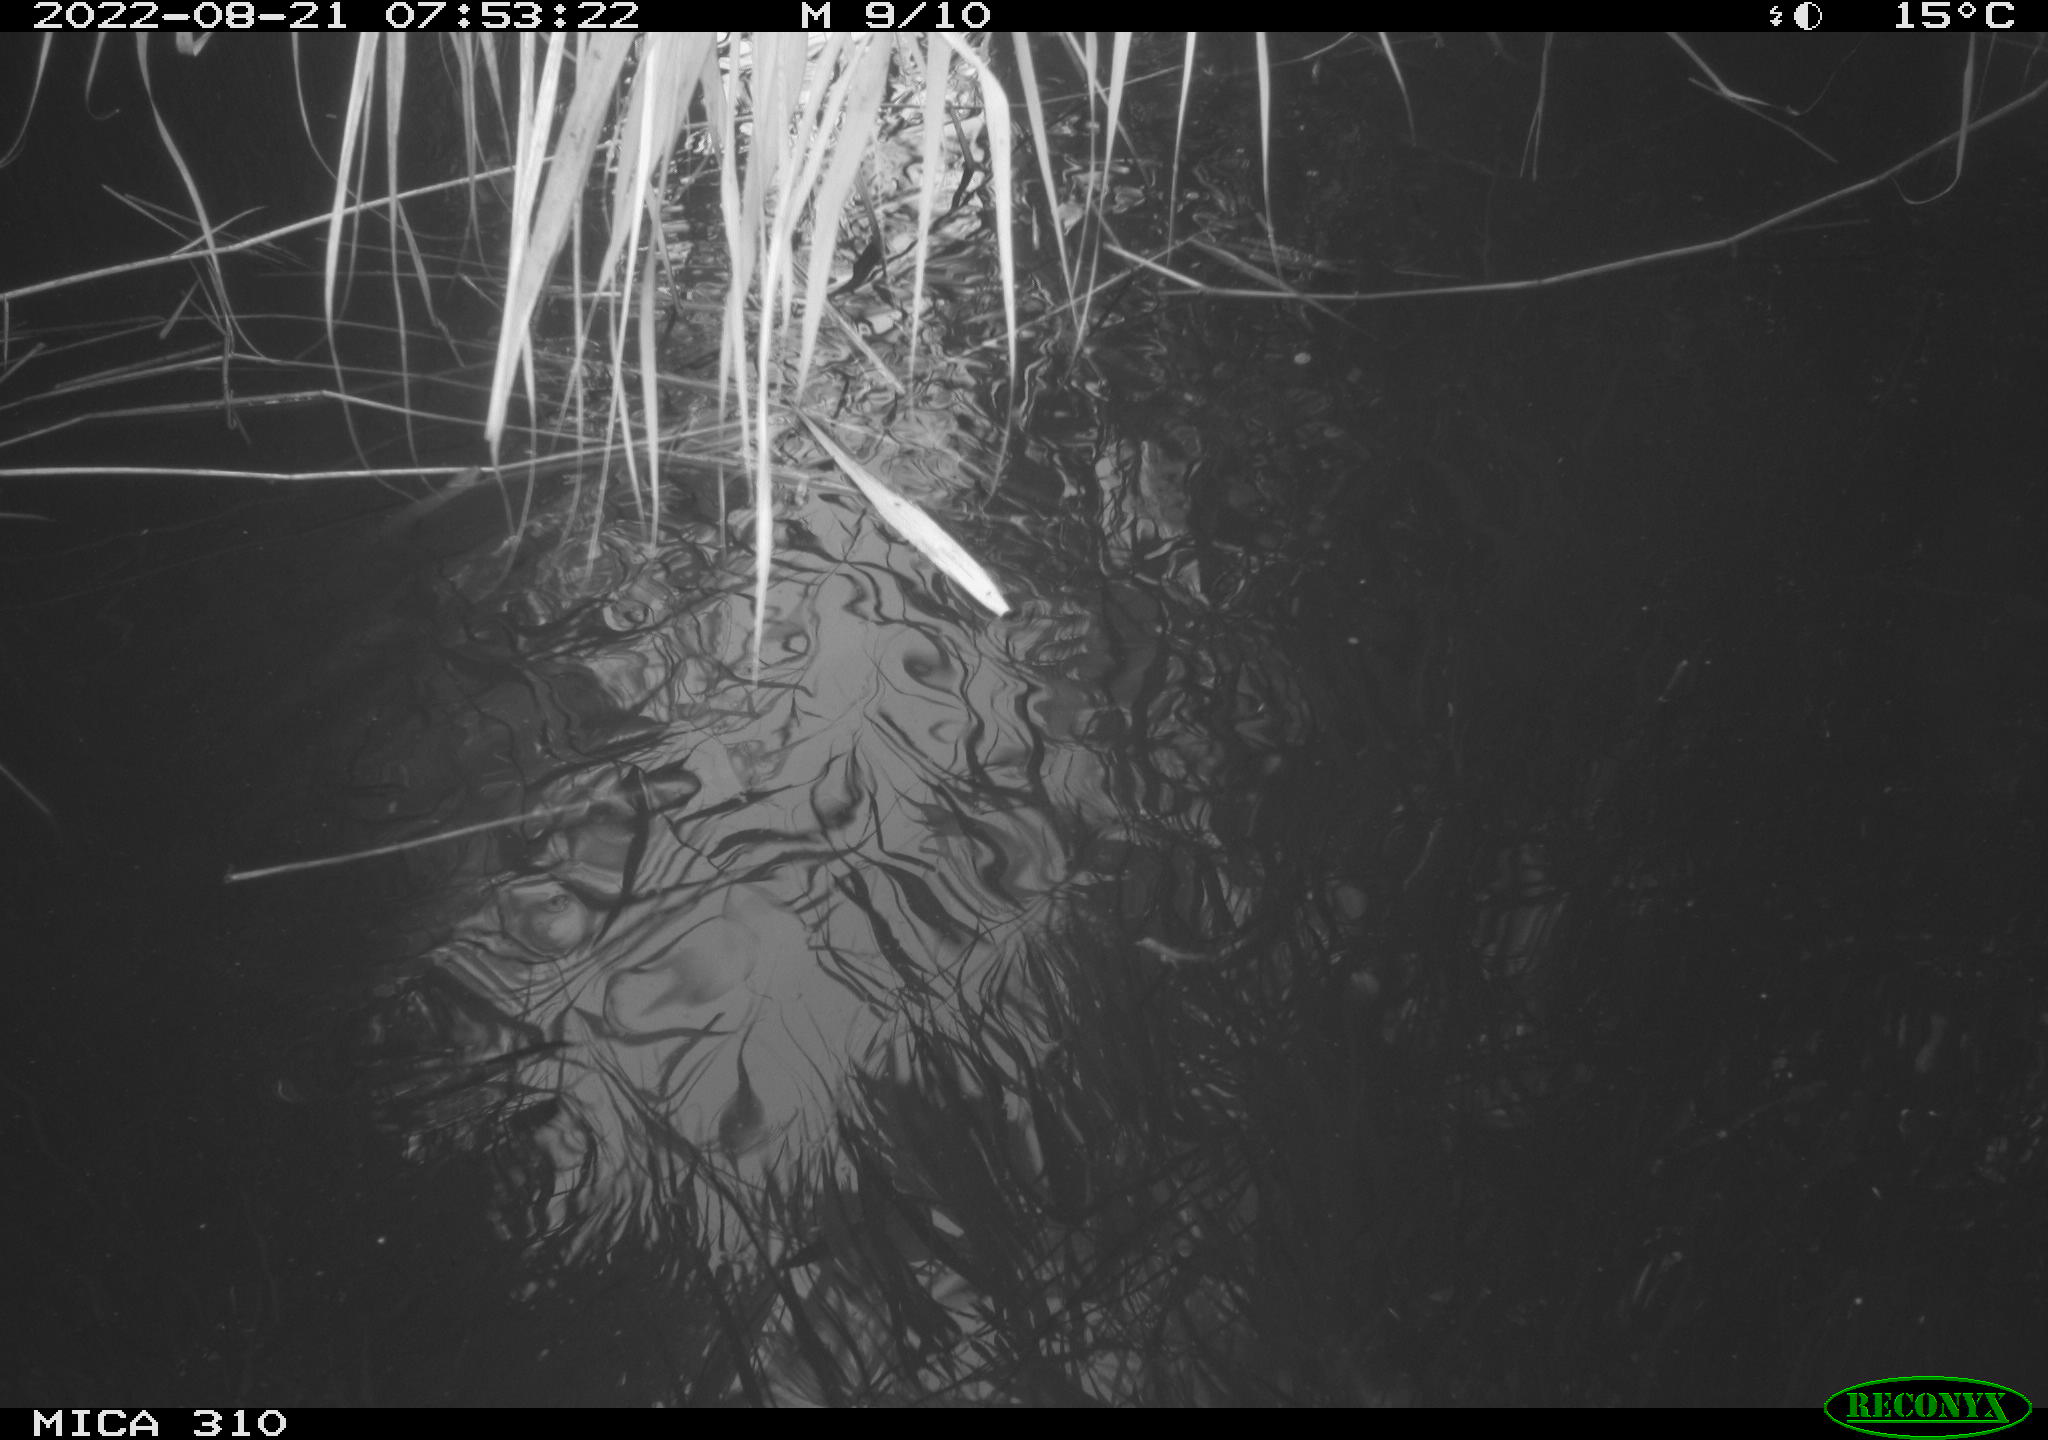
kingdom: Animalia
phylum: Chordata
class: Aves
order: Anseriformes
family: Anatidae
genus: Anas
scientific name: Anas platyrhynchos
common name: Mallard
